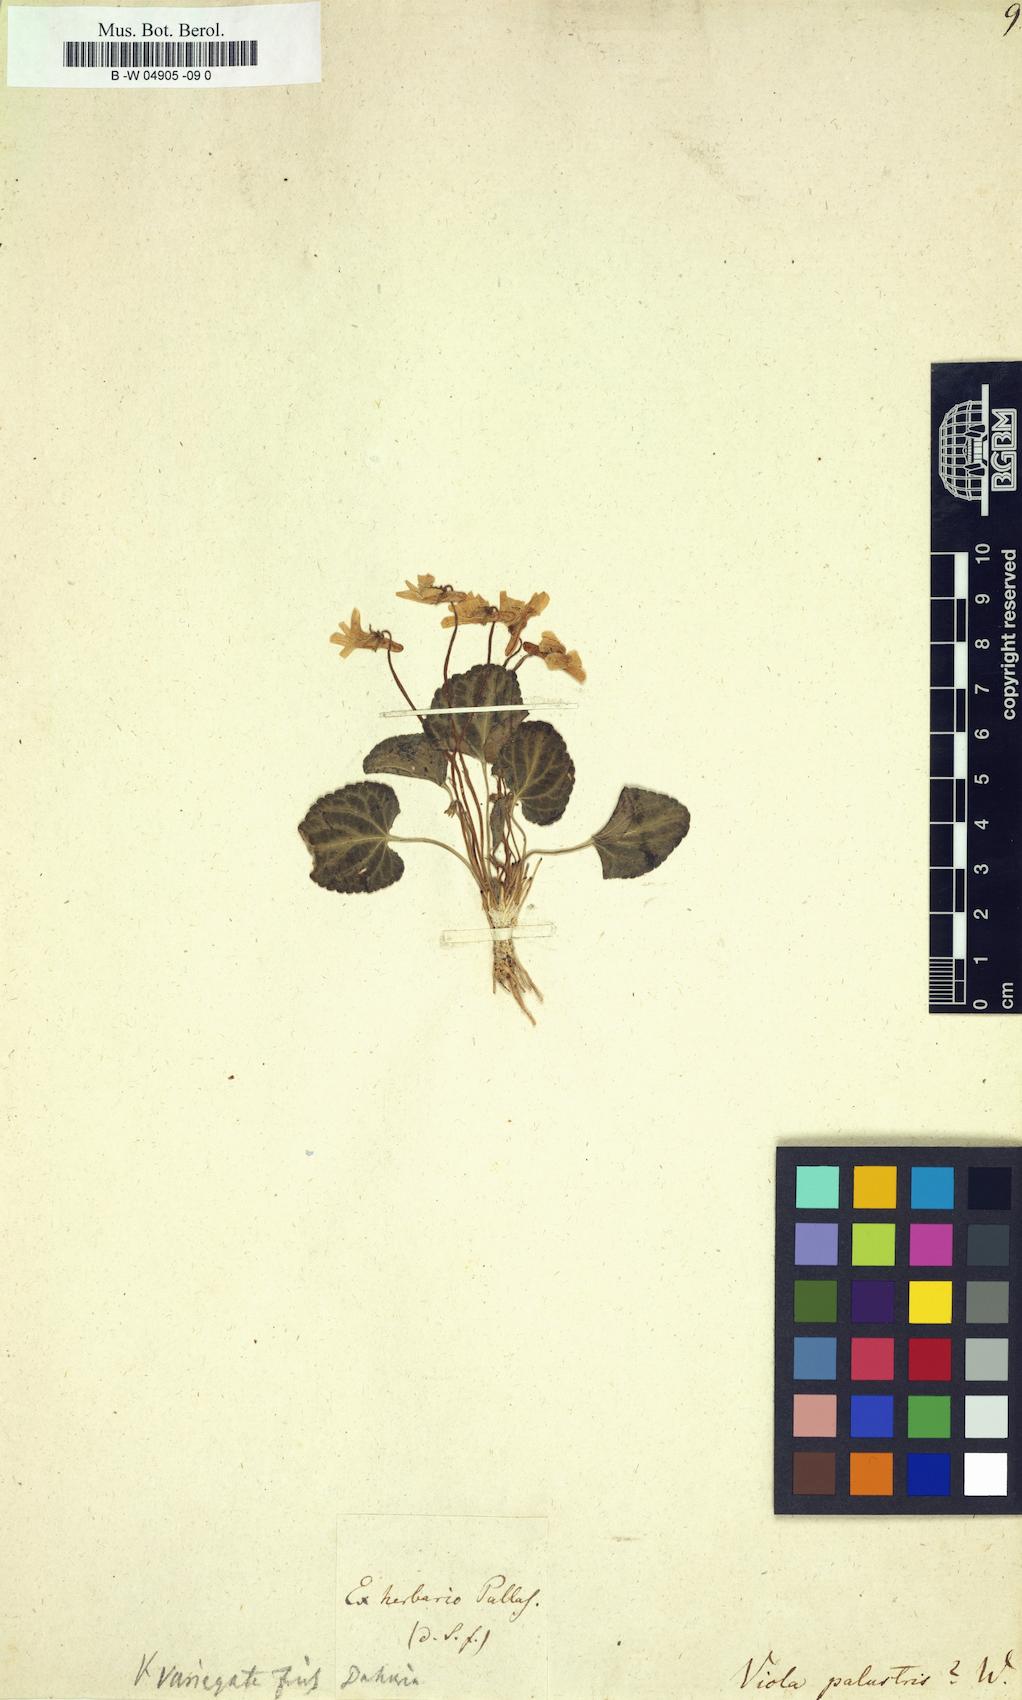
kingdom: Plantae
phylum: Tracheophyta
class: Magnoliopsida
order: Malpighiales
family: Violaceae
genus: Viola
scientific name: Viola palustris
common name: Marsh violet
